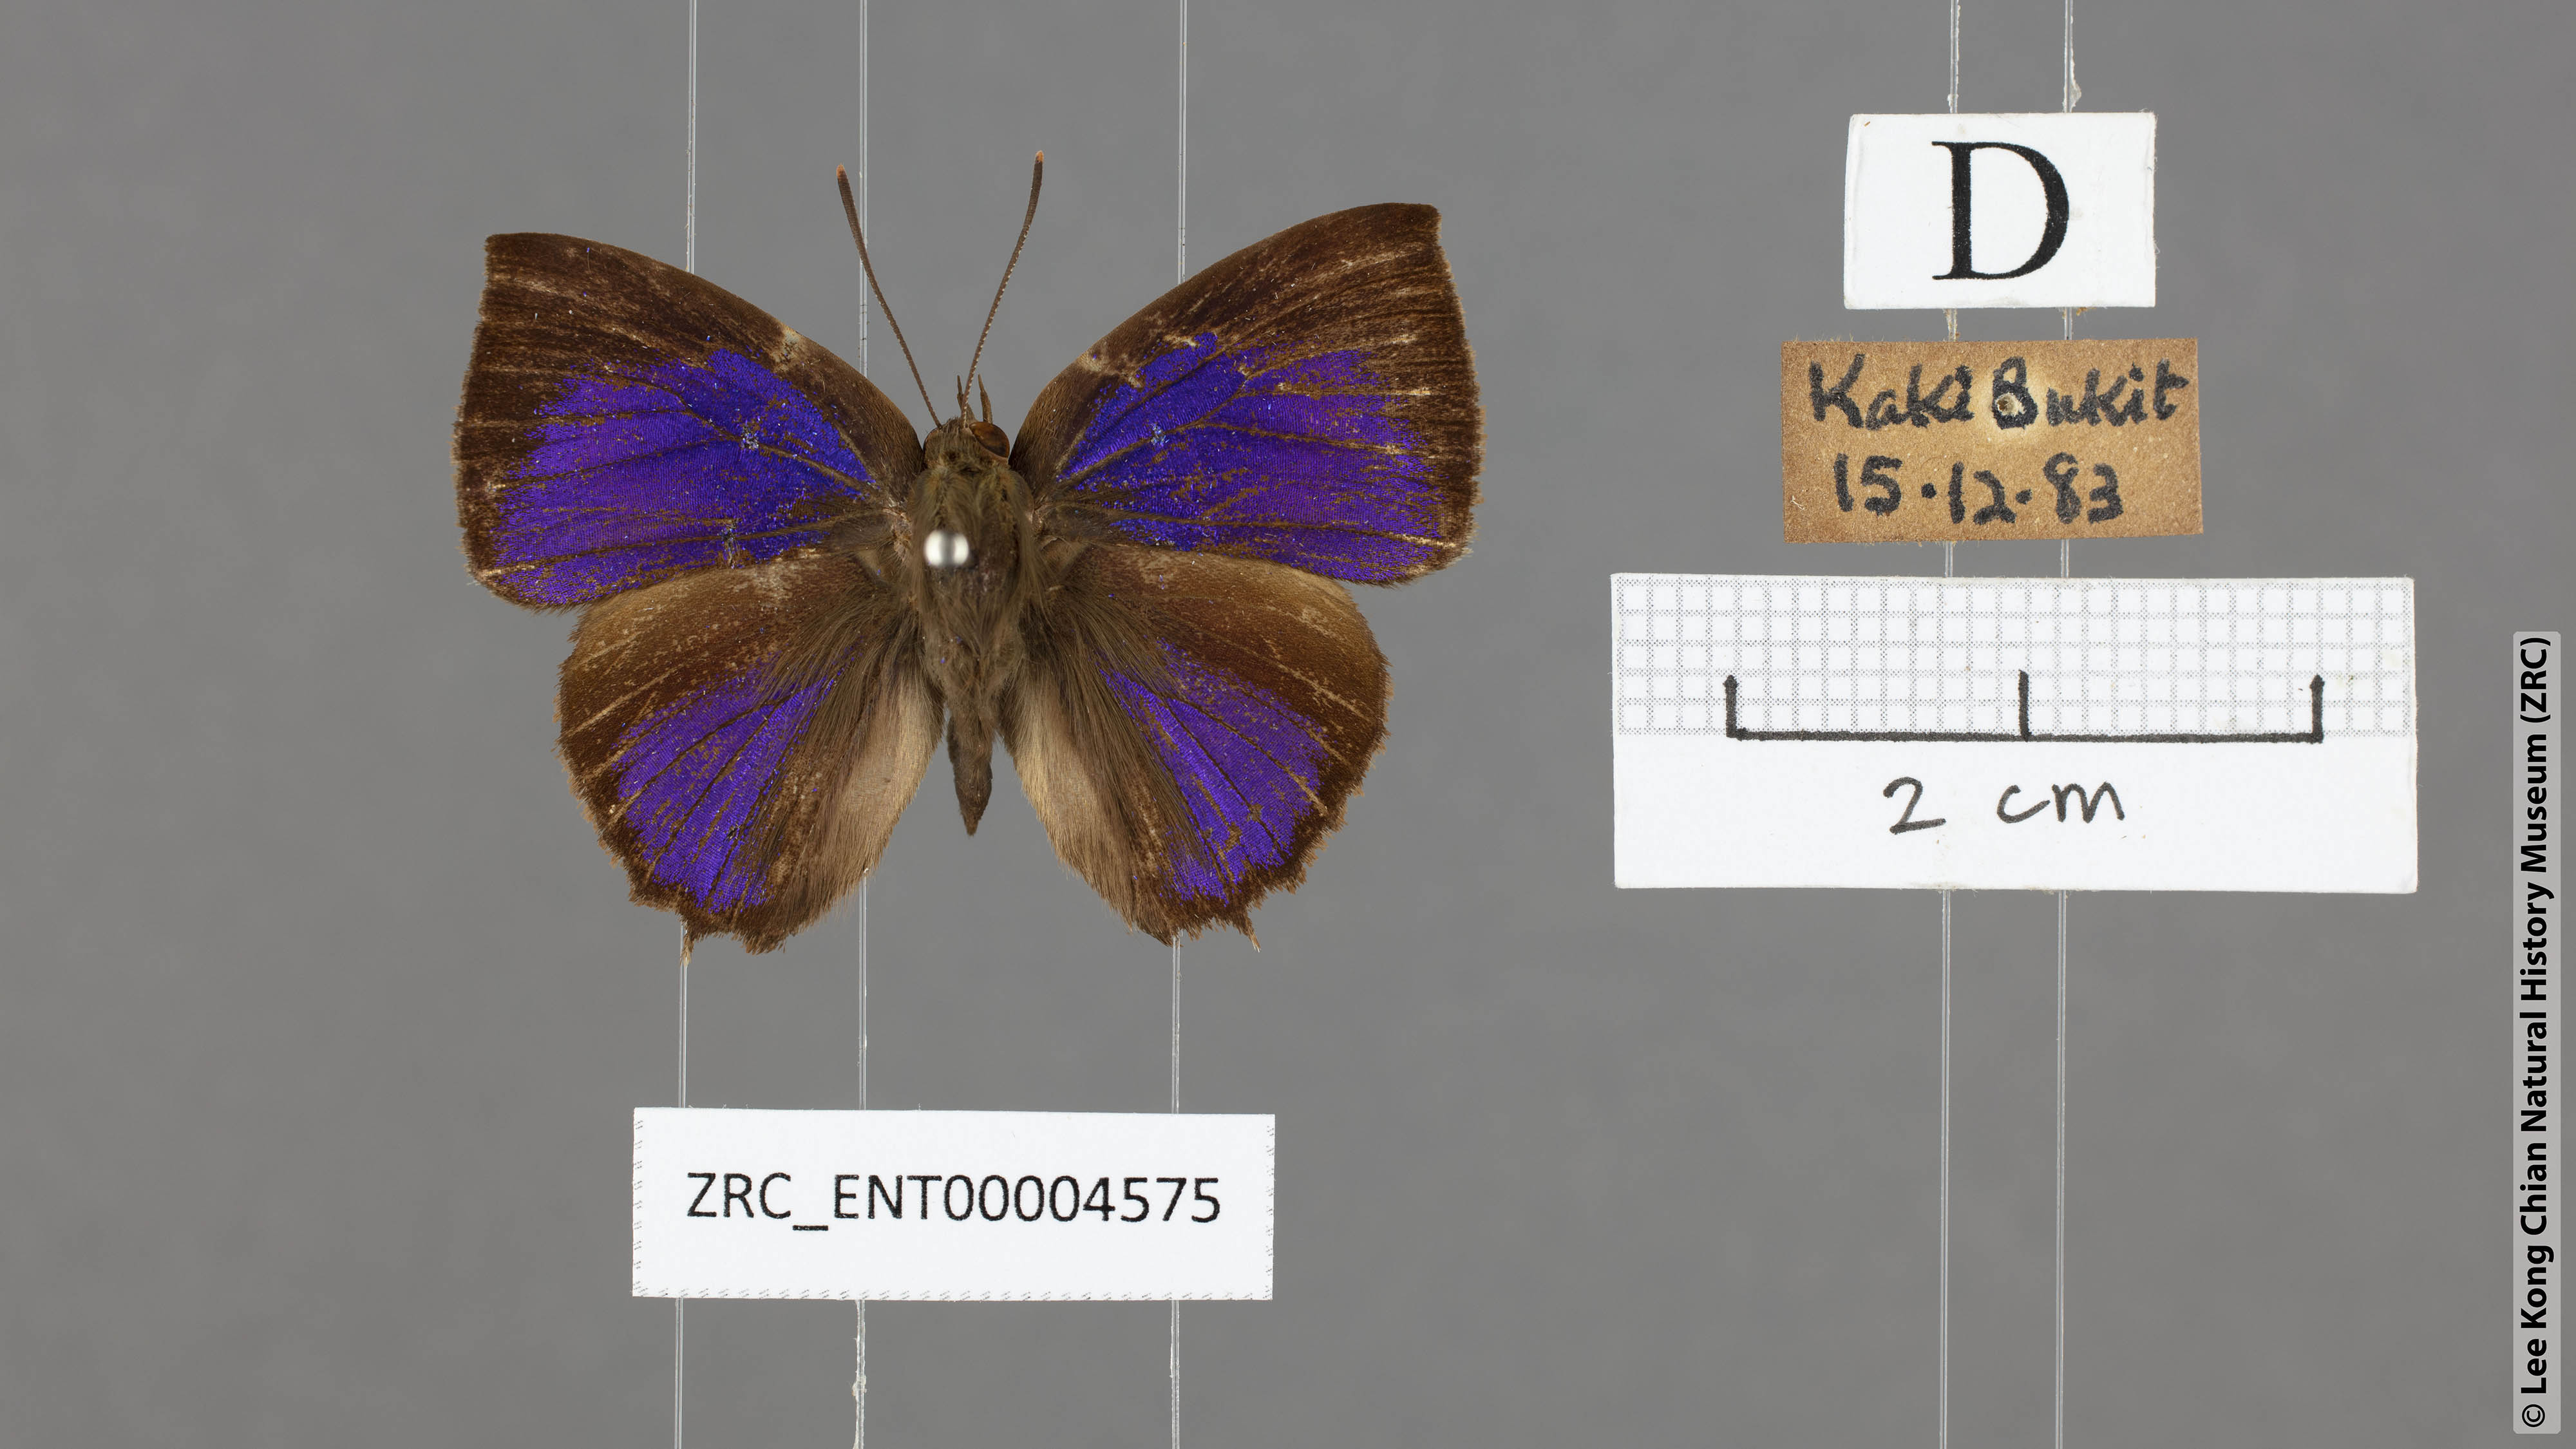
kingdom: Animalia
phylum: Arthropoda
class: Insecta
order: Lepidoptera
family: Lycaenidae
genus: Surendra
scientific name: Surendra vivarna
